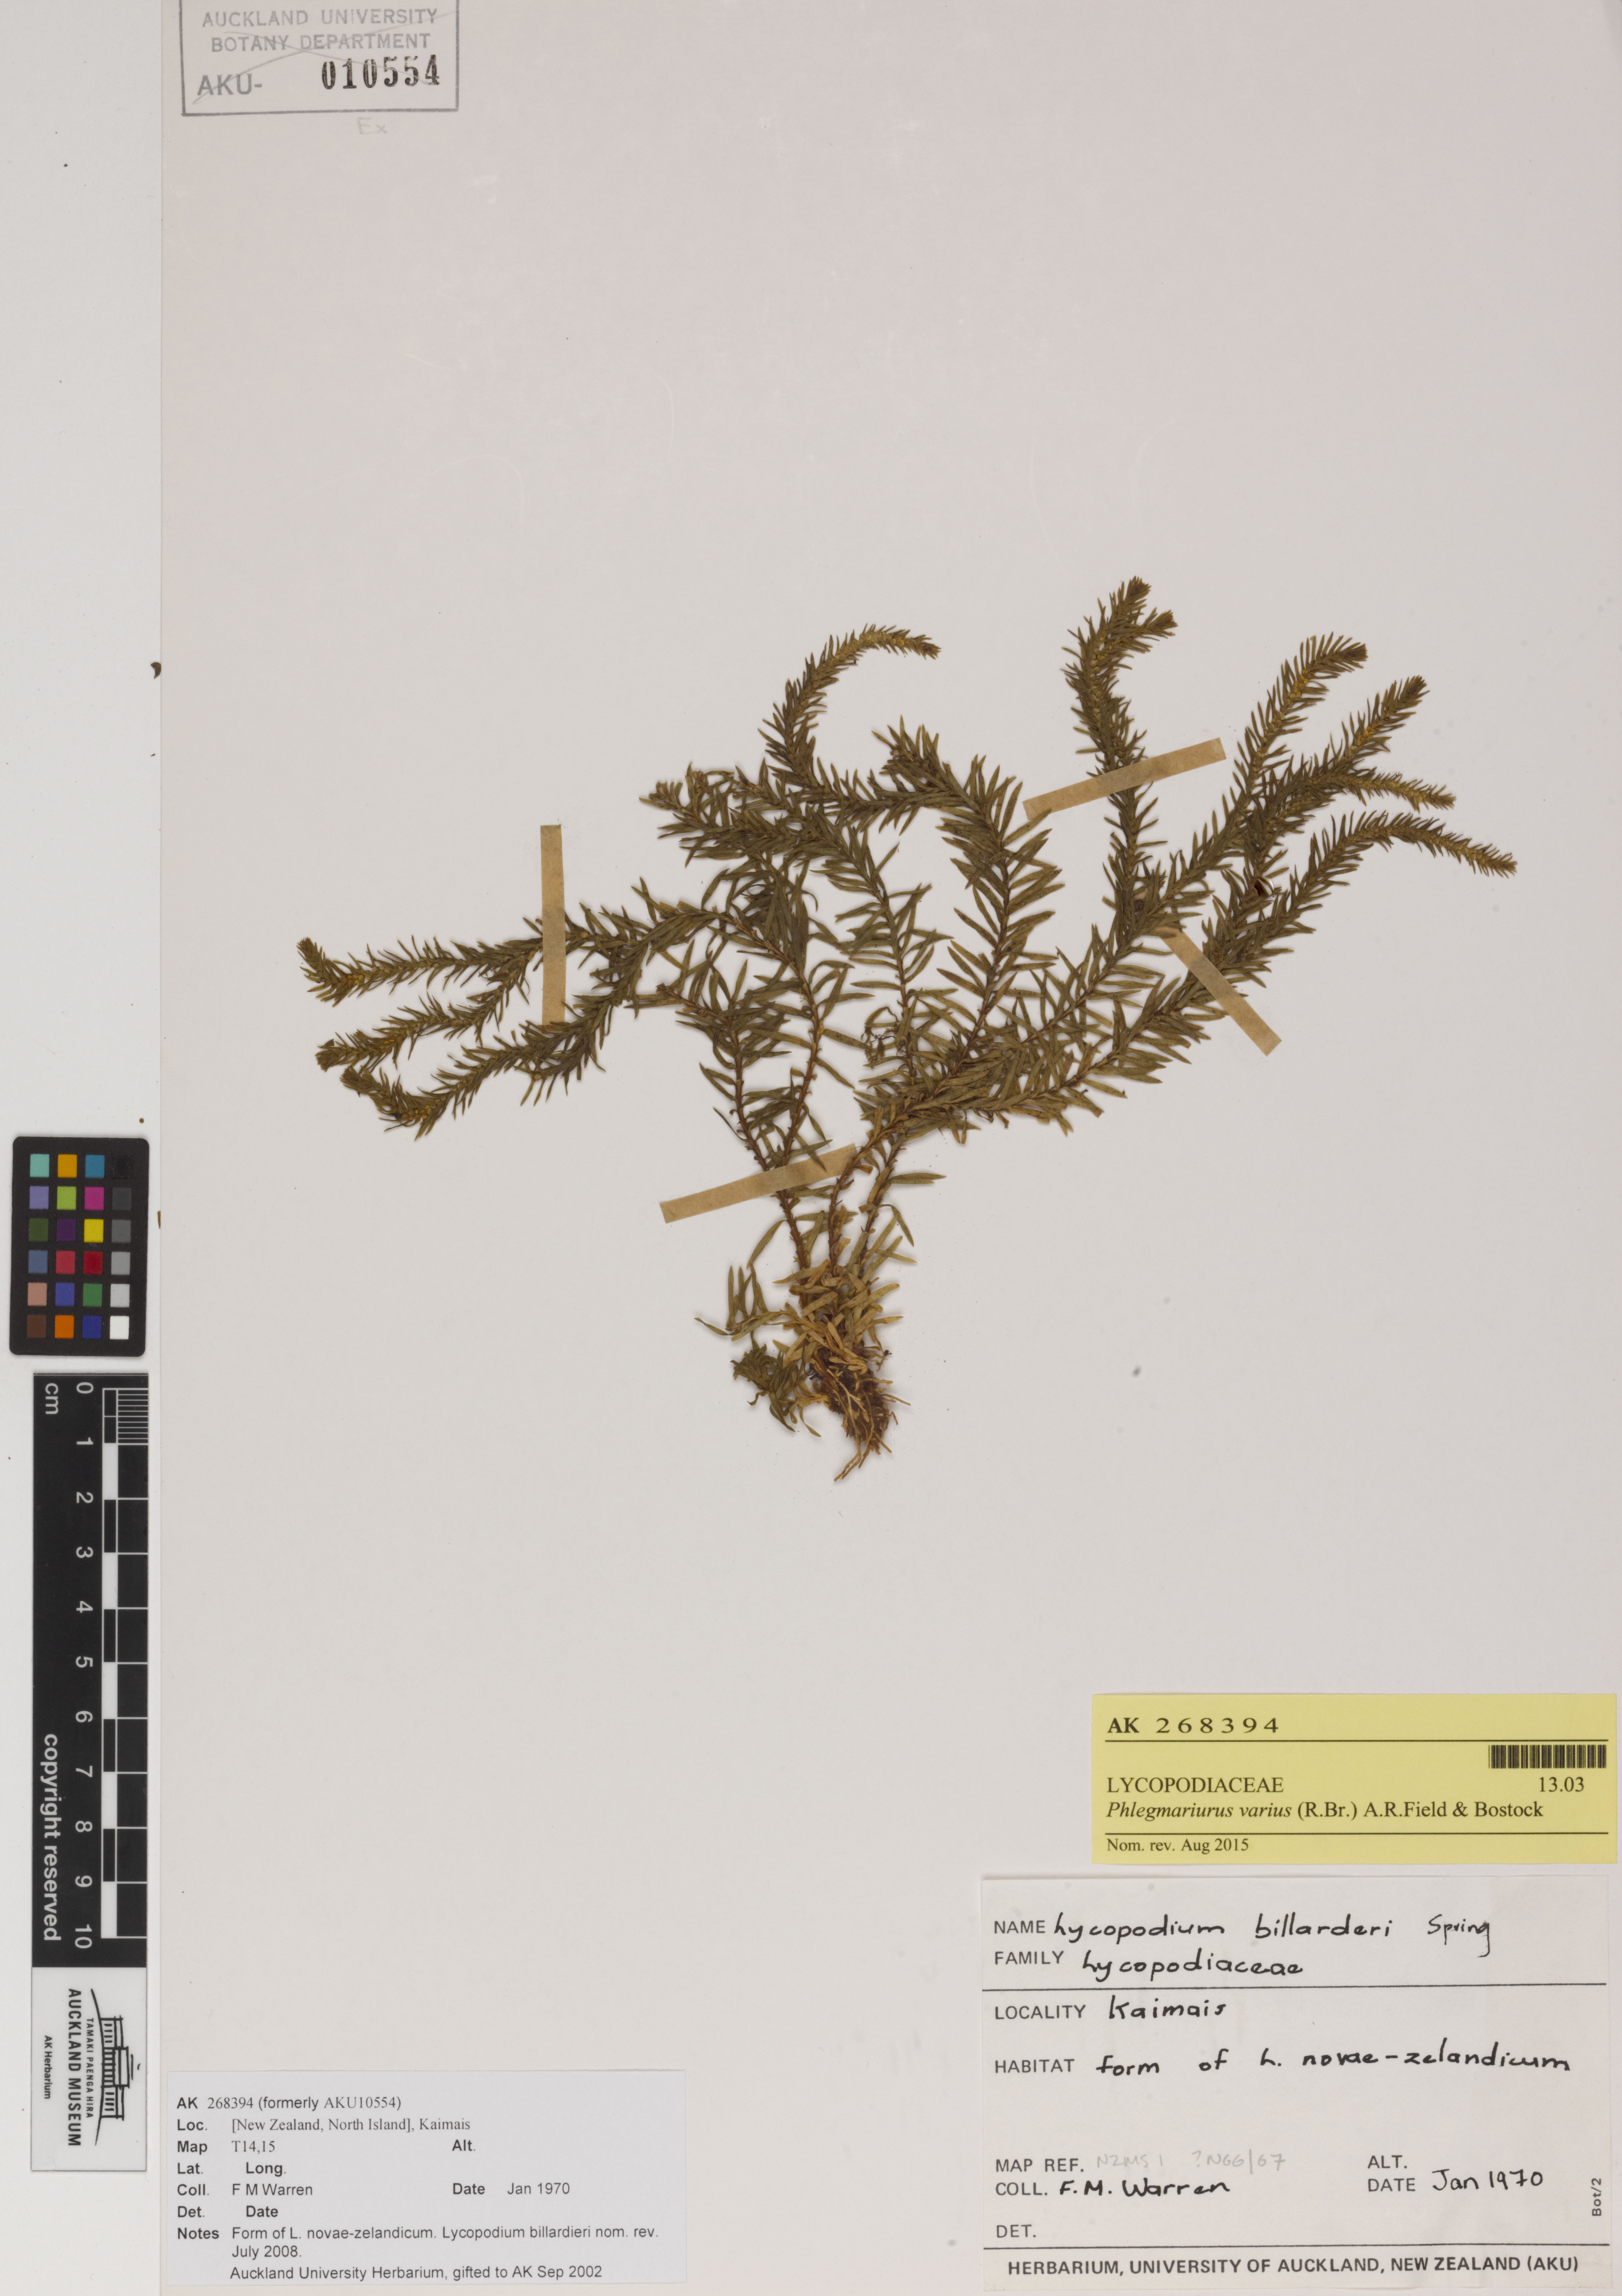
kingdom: Plantae
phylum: Tracheophyta
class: Lycopodiopsida
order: Lycopodiales
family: Lycopodiaceae
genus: Phlegmariurus
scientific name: Phlegmariurus varius
